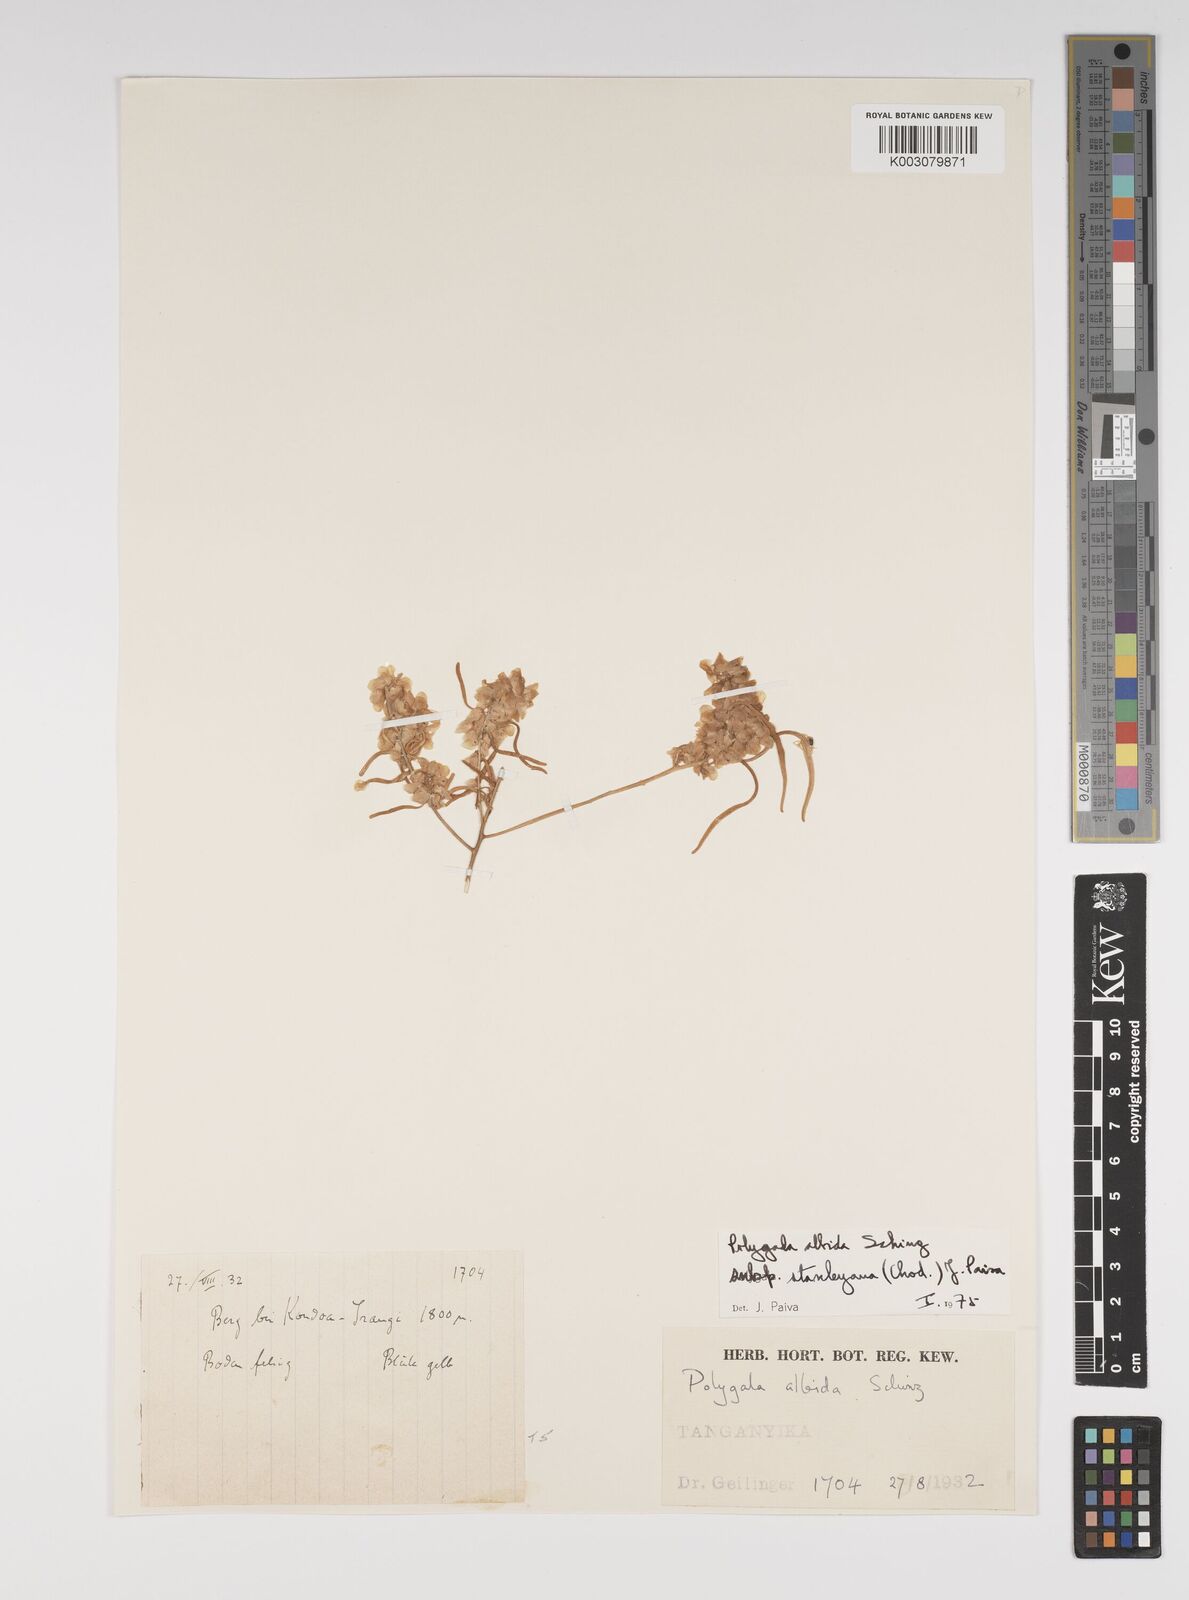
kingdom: Plantae
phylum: Tracheophyta
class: Magnoliopsida
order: Fabales
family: Polygalaceae
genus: Polygala
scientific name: Polygala albida
